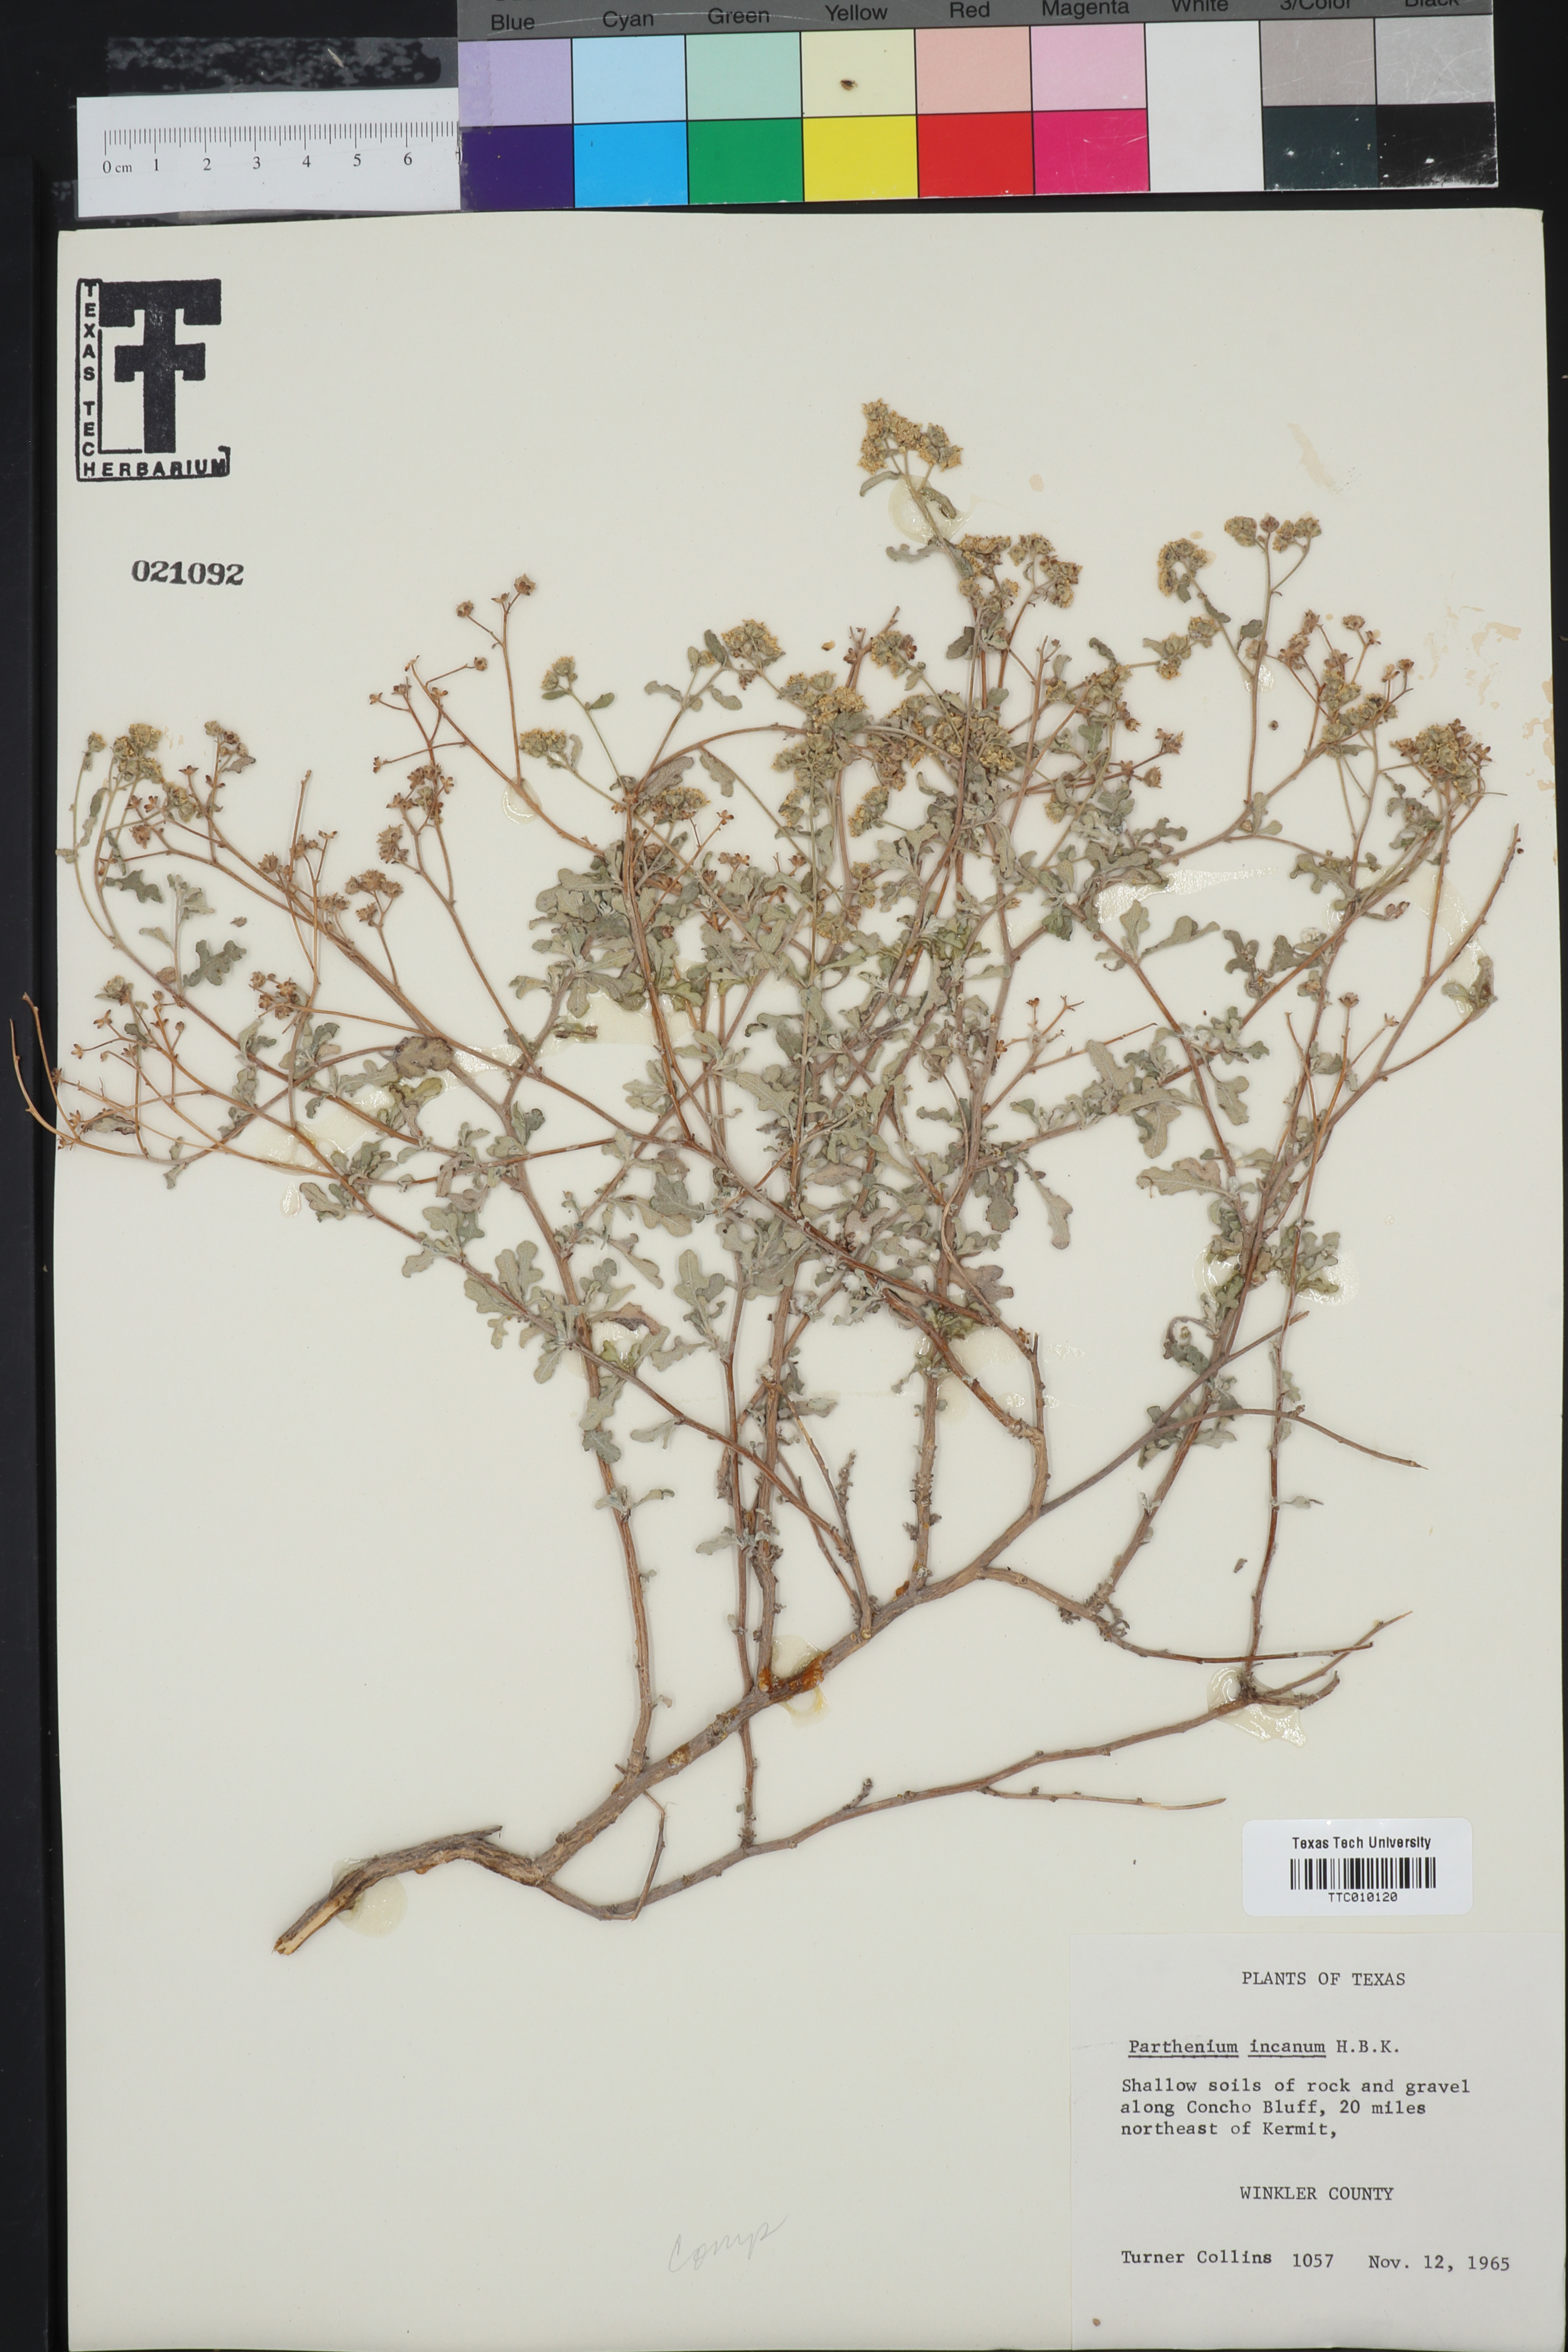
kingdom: Plantae
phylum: Tracheophyta
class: Magnoliopsida
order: Asterales
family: Asteraceae
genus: Parthenium
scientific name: Parthenium incanum
